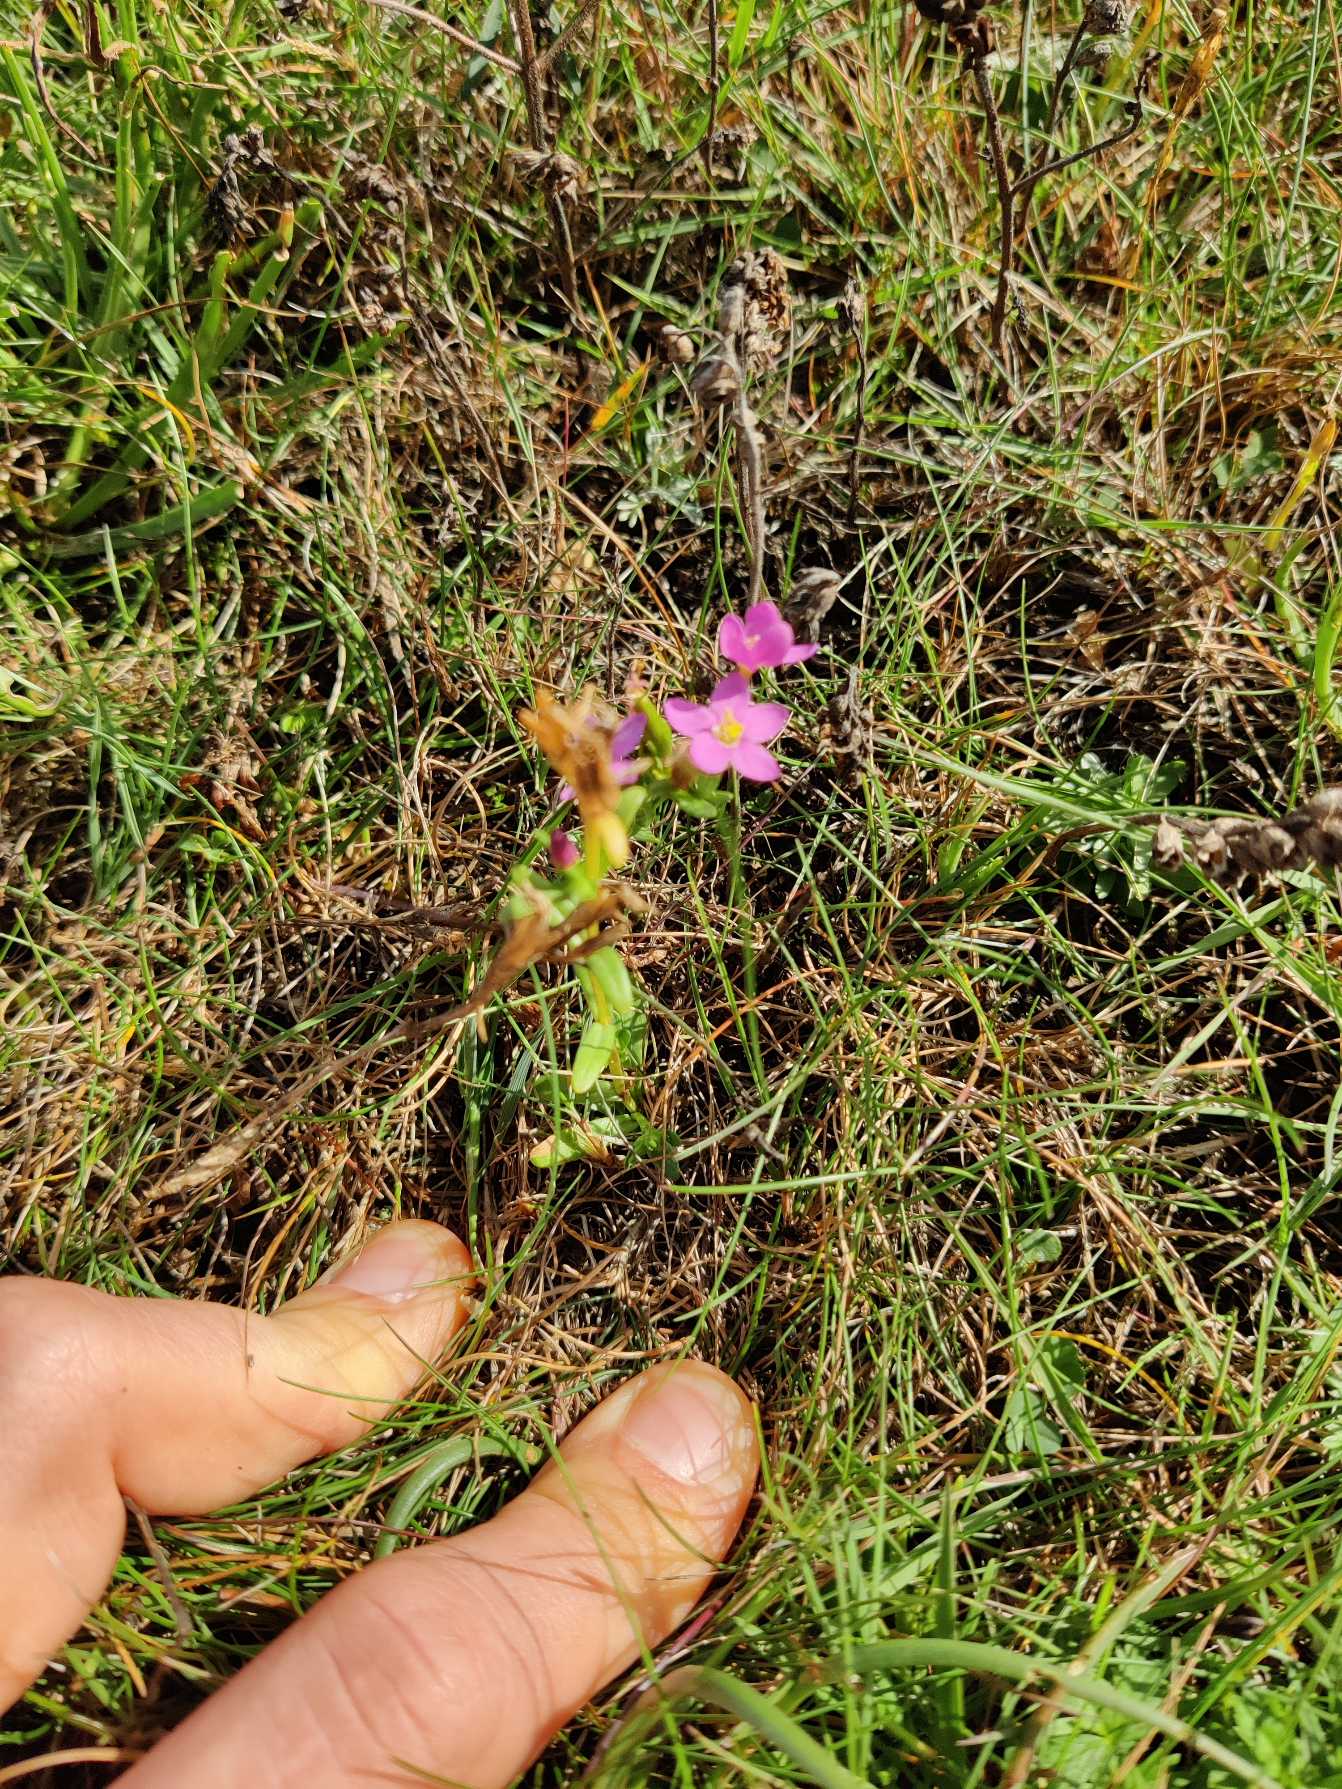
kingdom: Plantae
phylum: Tracheophyta
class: Magnoliopsida
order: Gentianales
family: Gentianaceae
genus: Centaurium
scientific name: Centaurium erythraea
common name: Mark-tusindgylden
